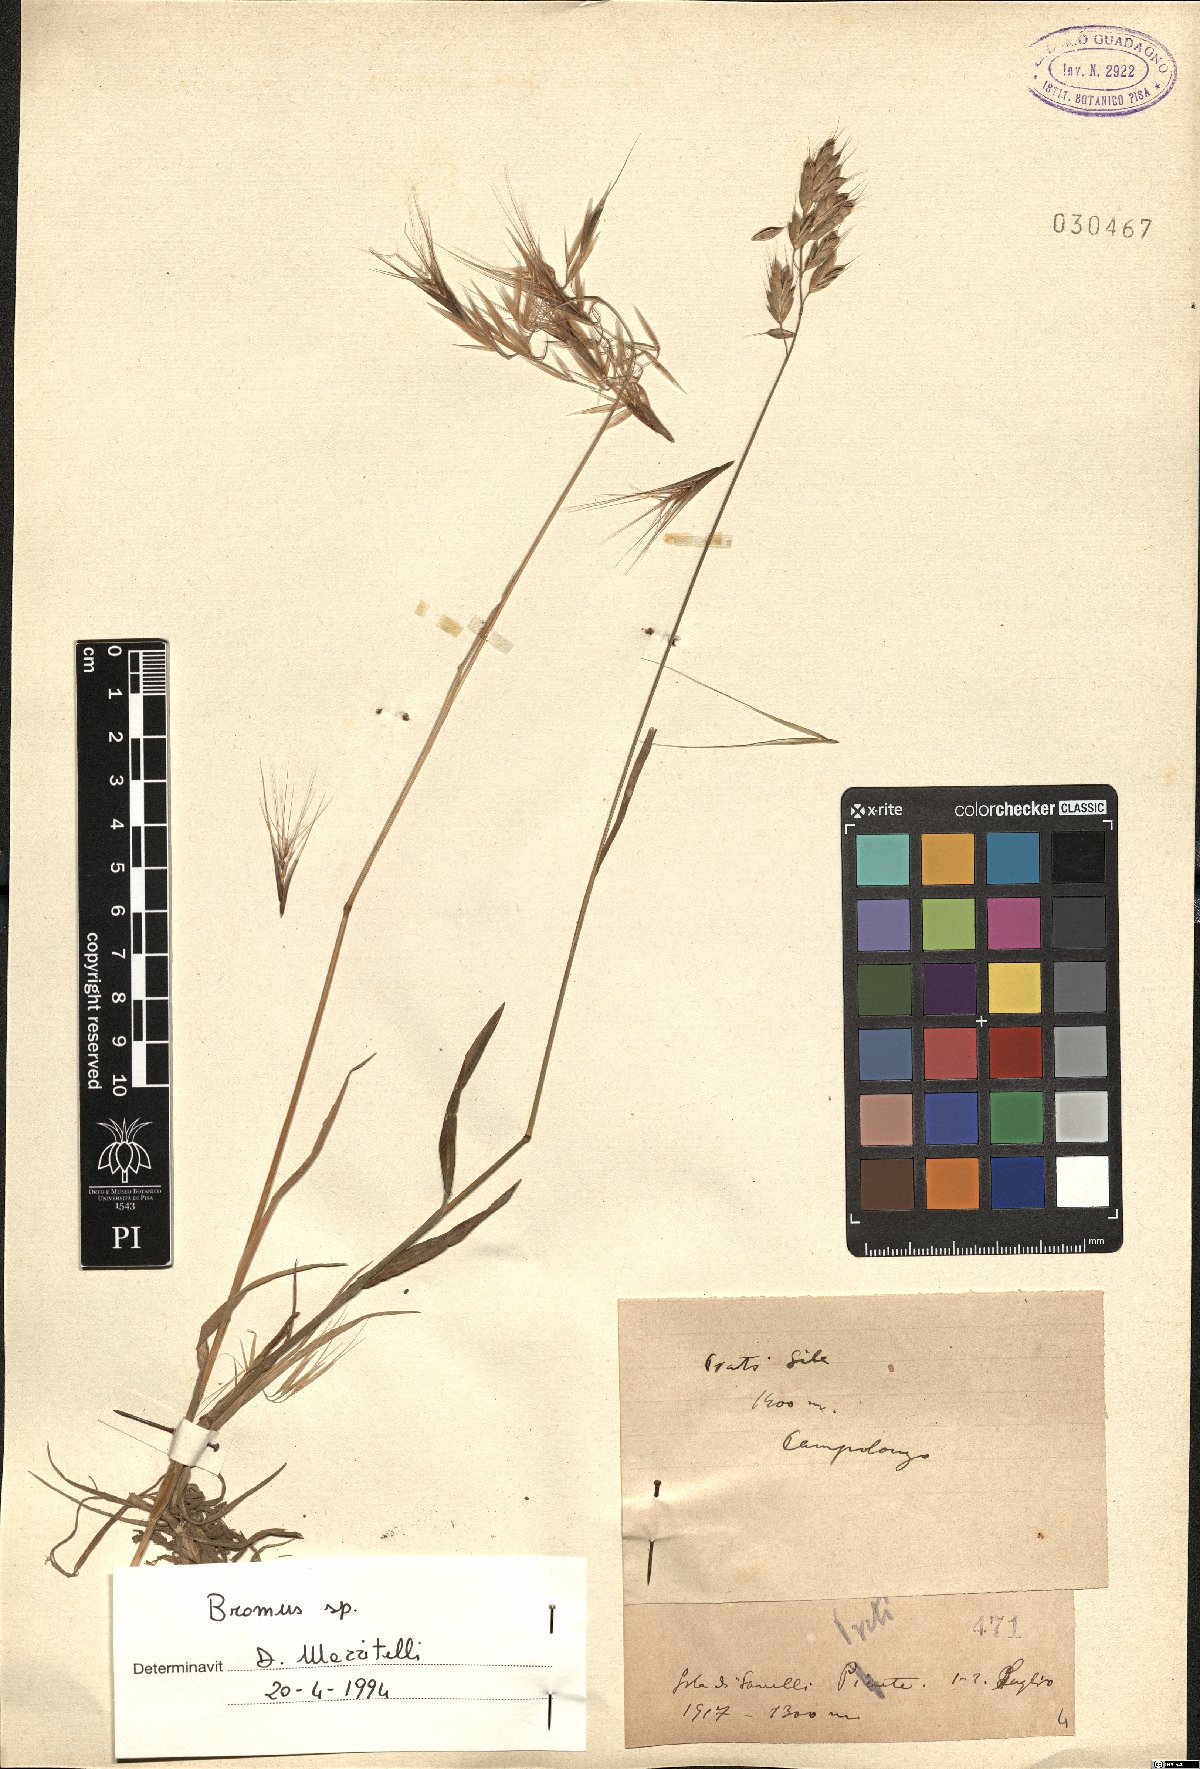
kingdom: Plantae
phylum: Tracheophyta
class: Liliopsida
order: Poales
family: Poaceae
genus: Bromus
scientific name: Bromus
